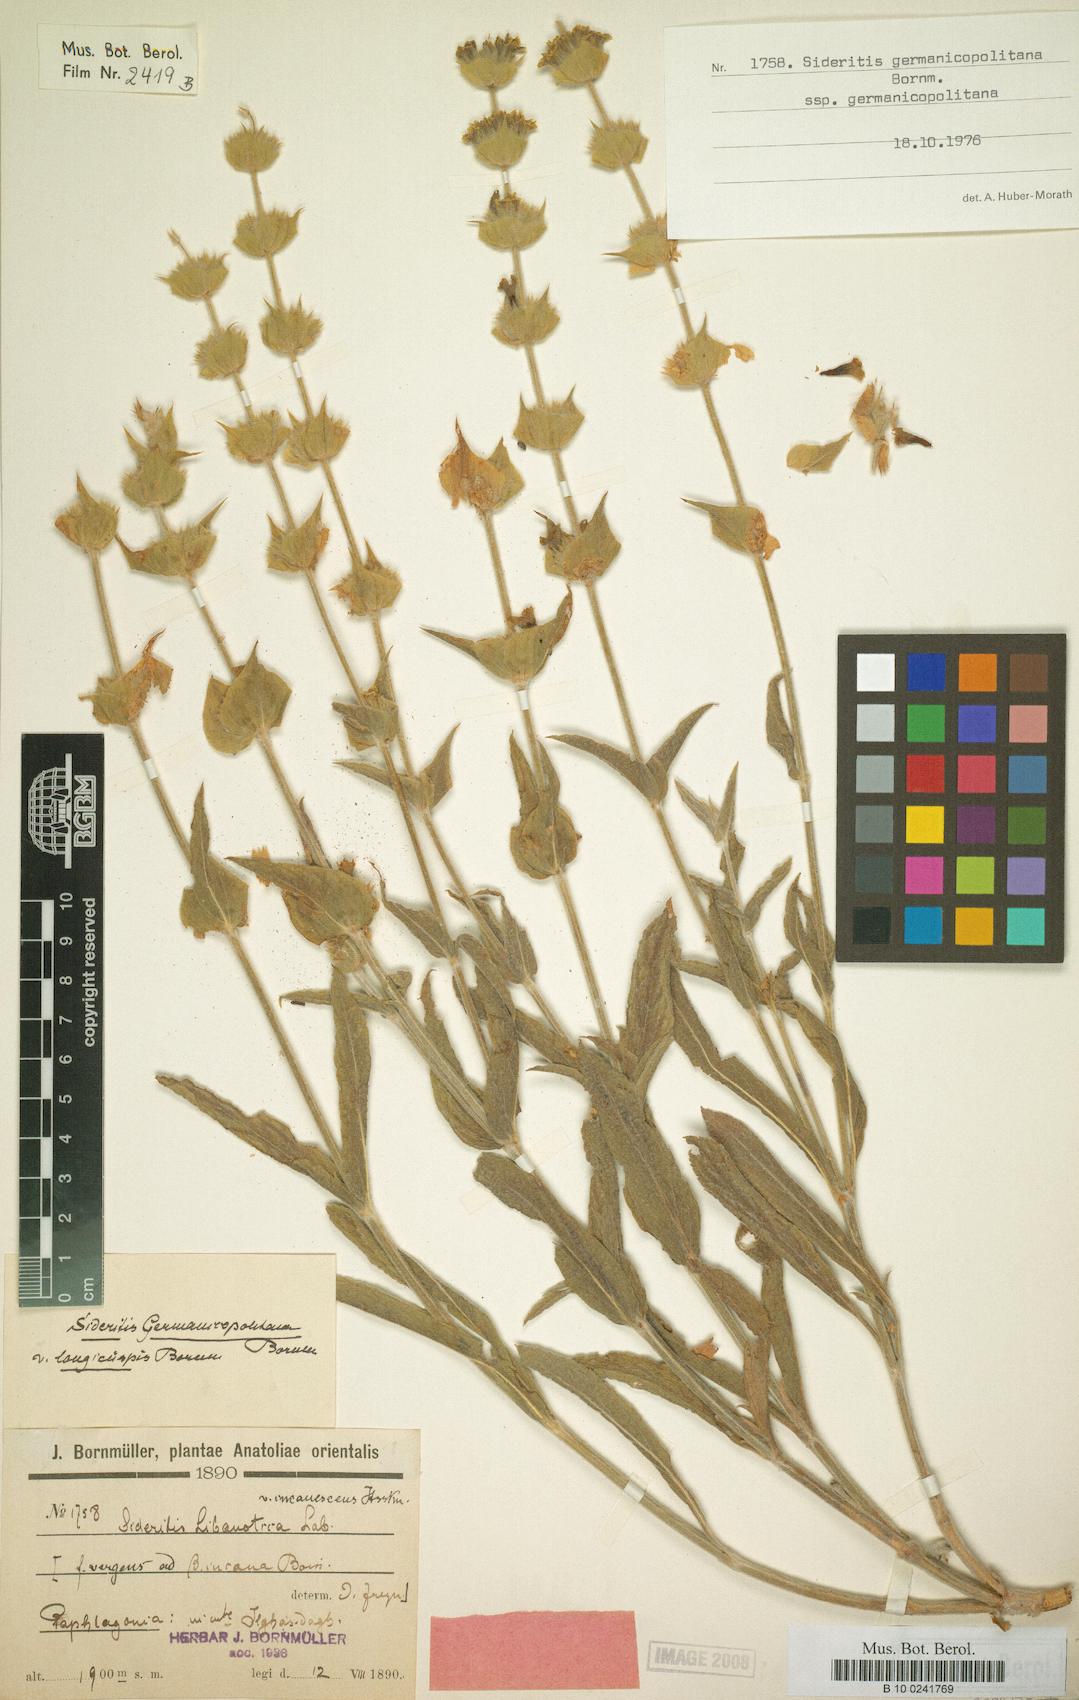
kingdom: Plantae
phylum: Tracheophyta
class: Magnoliopsida
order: Lamiales
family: Lamiaceae
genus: Sideritis
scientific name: Sideritis germanicopolitana
